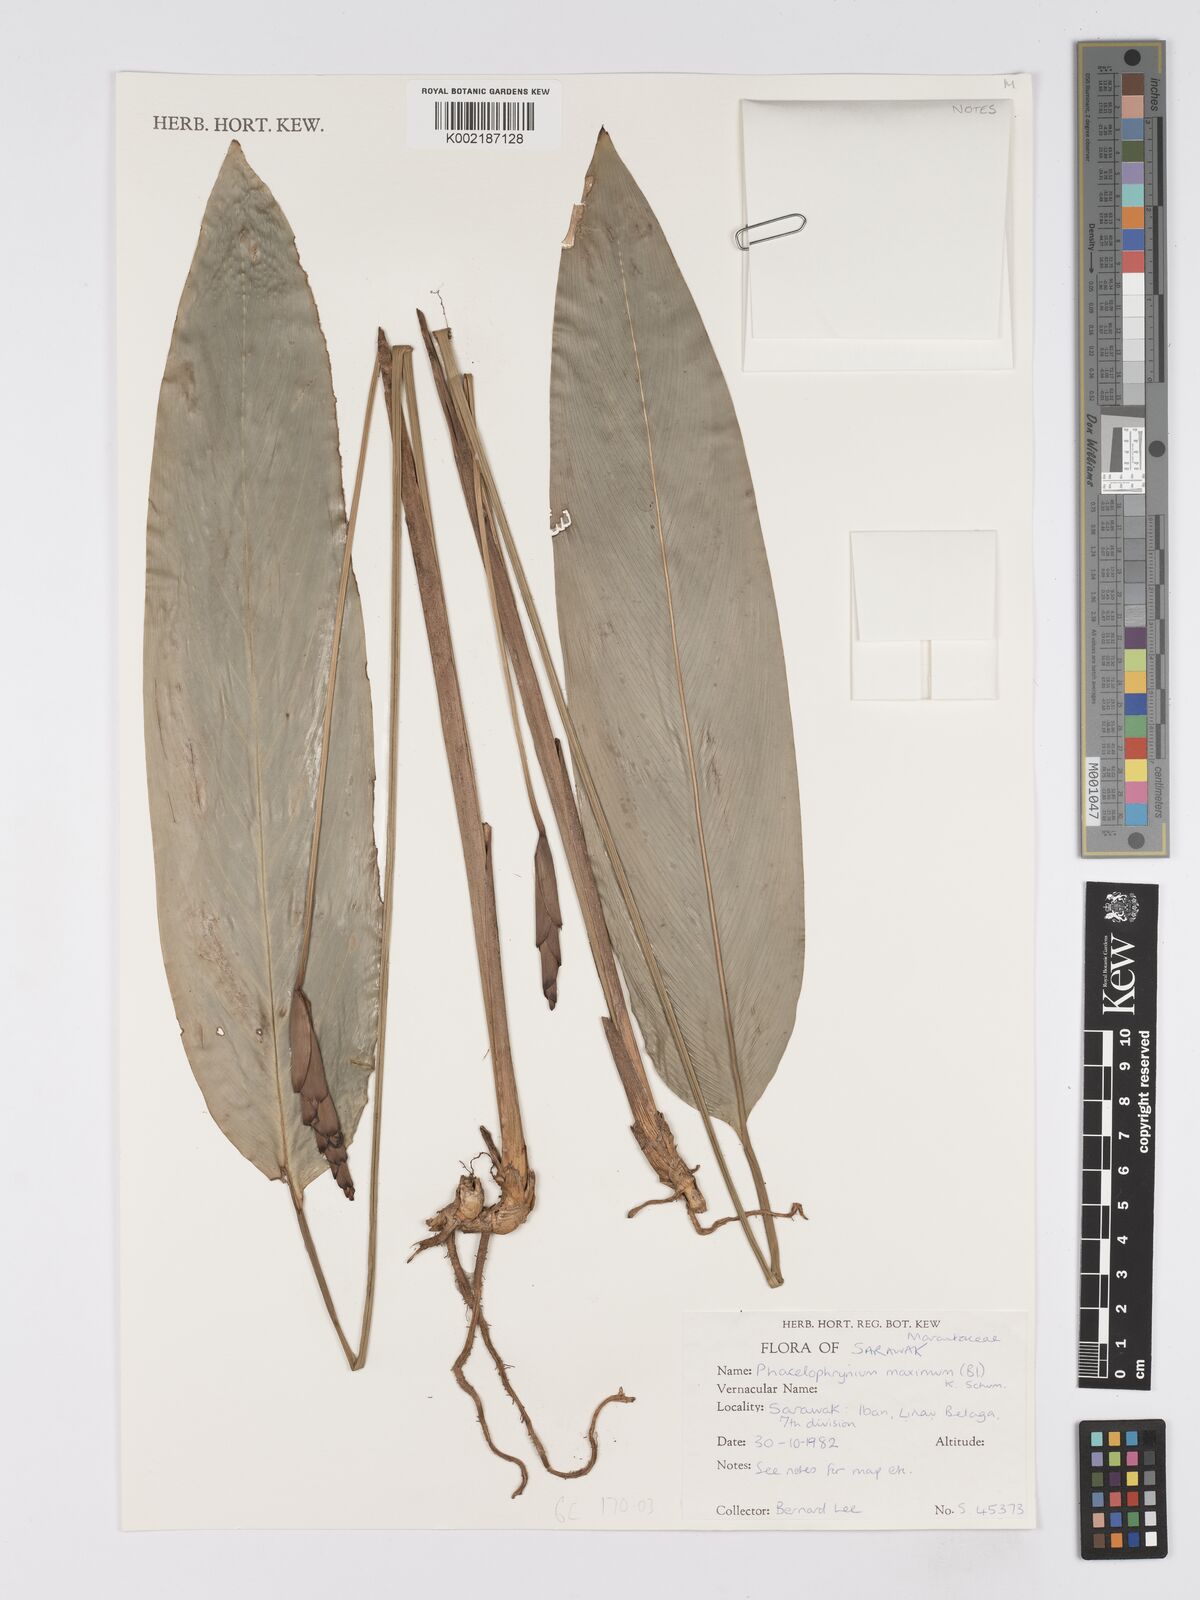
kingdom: Plantae
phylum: Tracheophyta
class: Liliopsida
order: Zingiberales
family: Marantaceae
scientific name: Marantaceae
